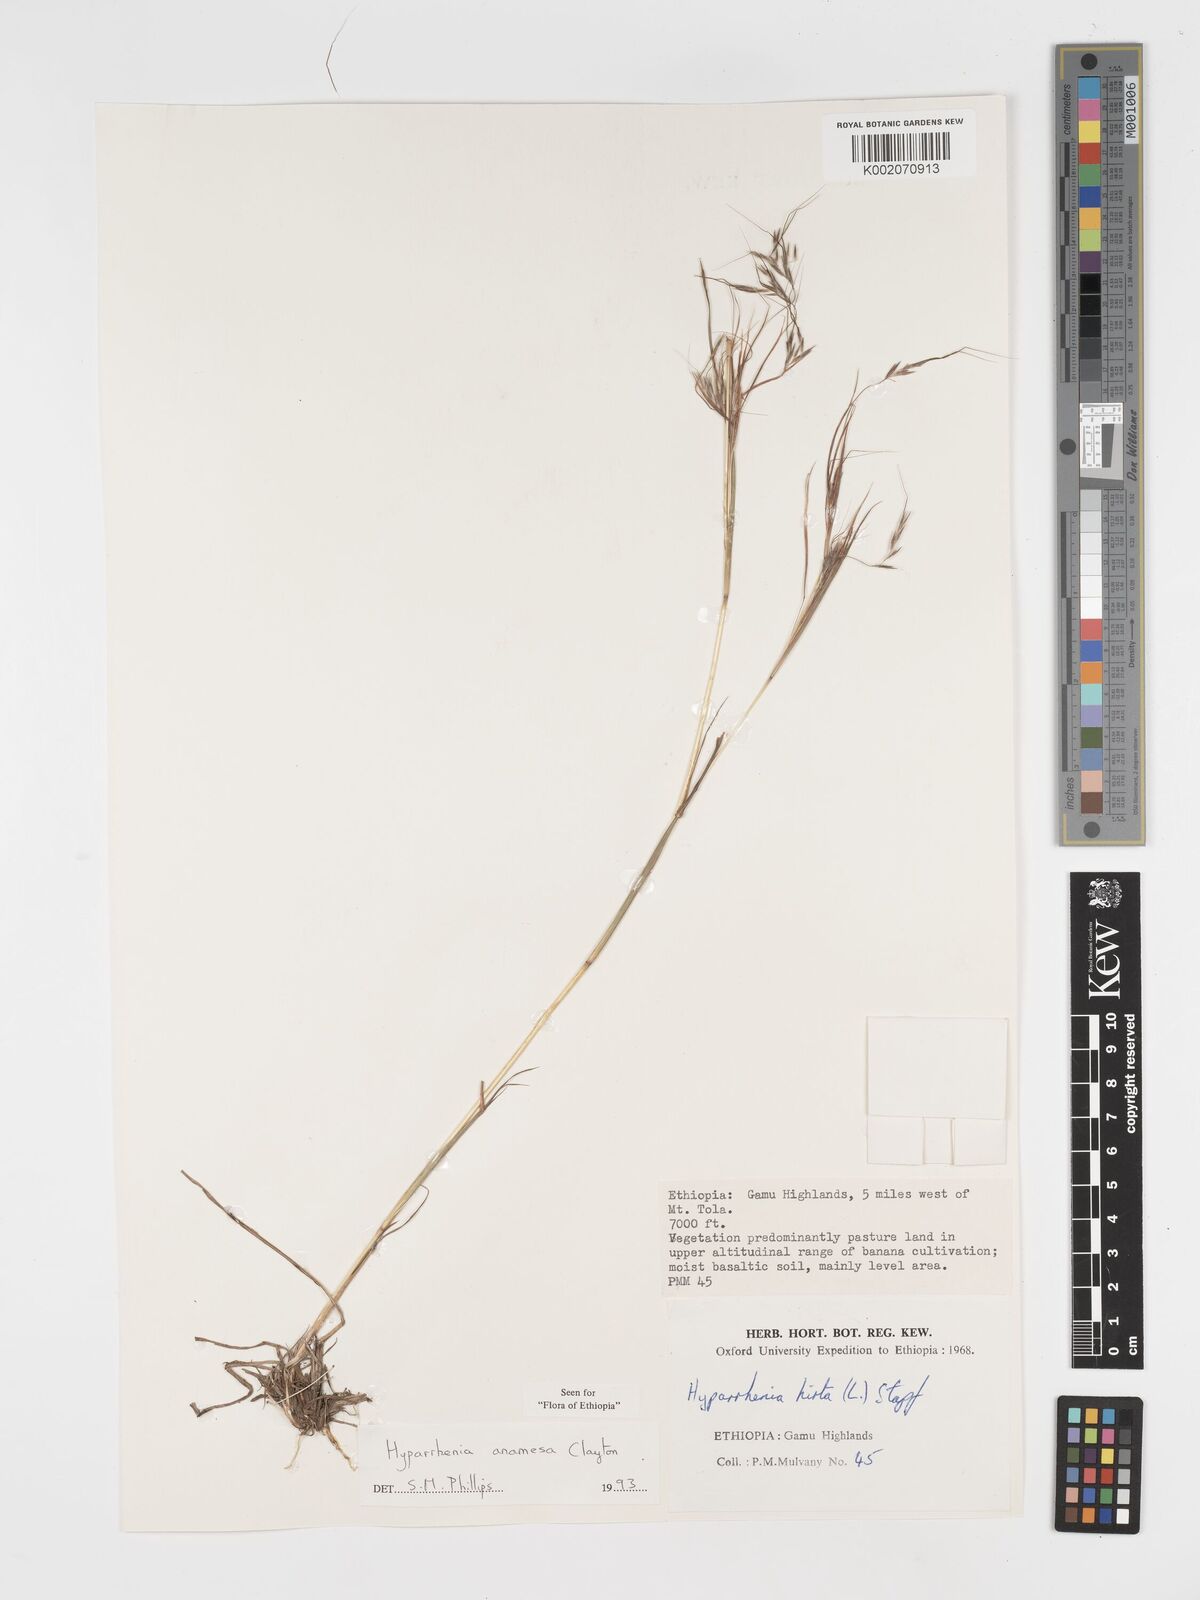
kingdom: Plantae
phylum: Tracheophyta
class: Liliopsida
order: Poales
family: Poaceae
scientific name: Poaceae
